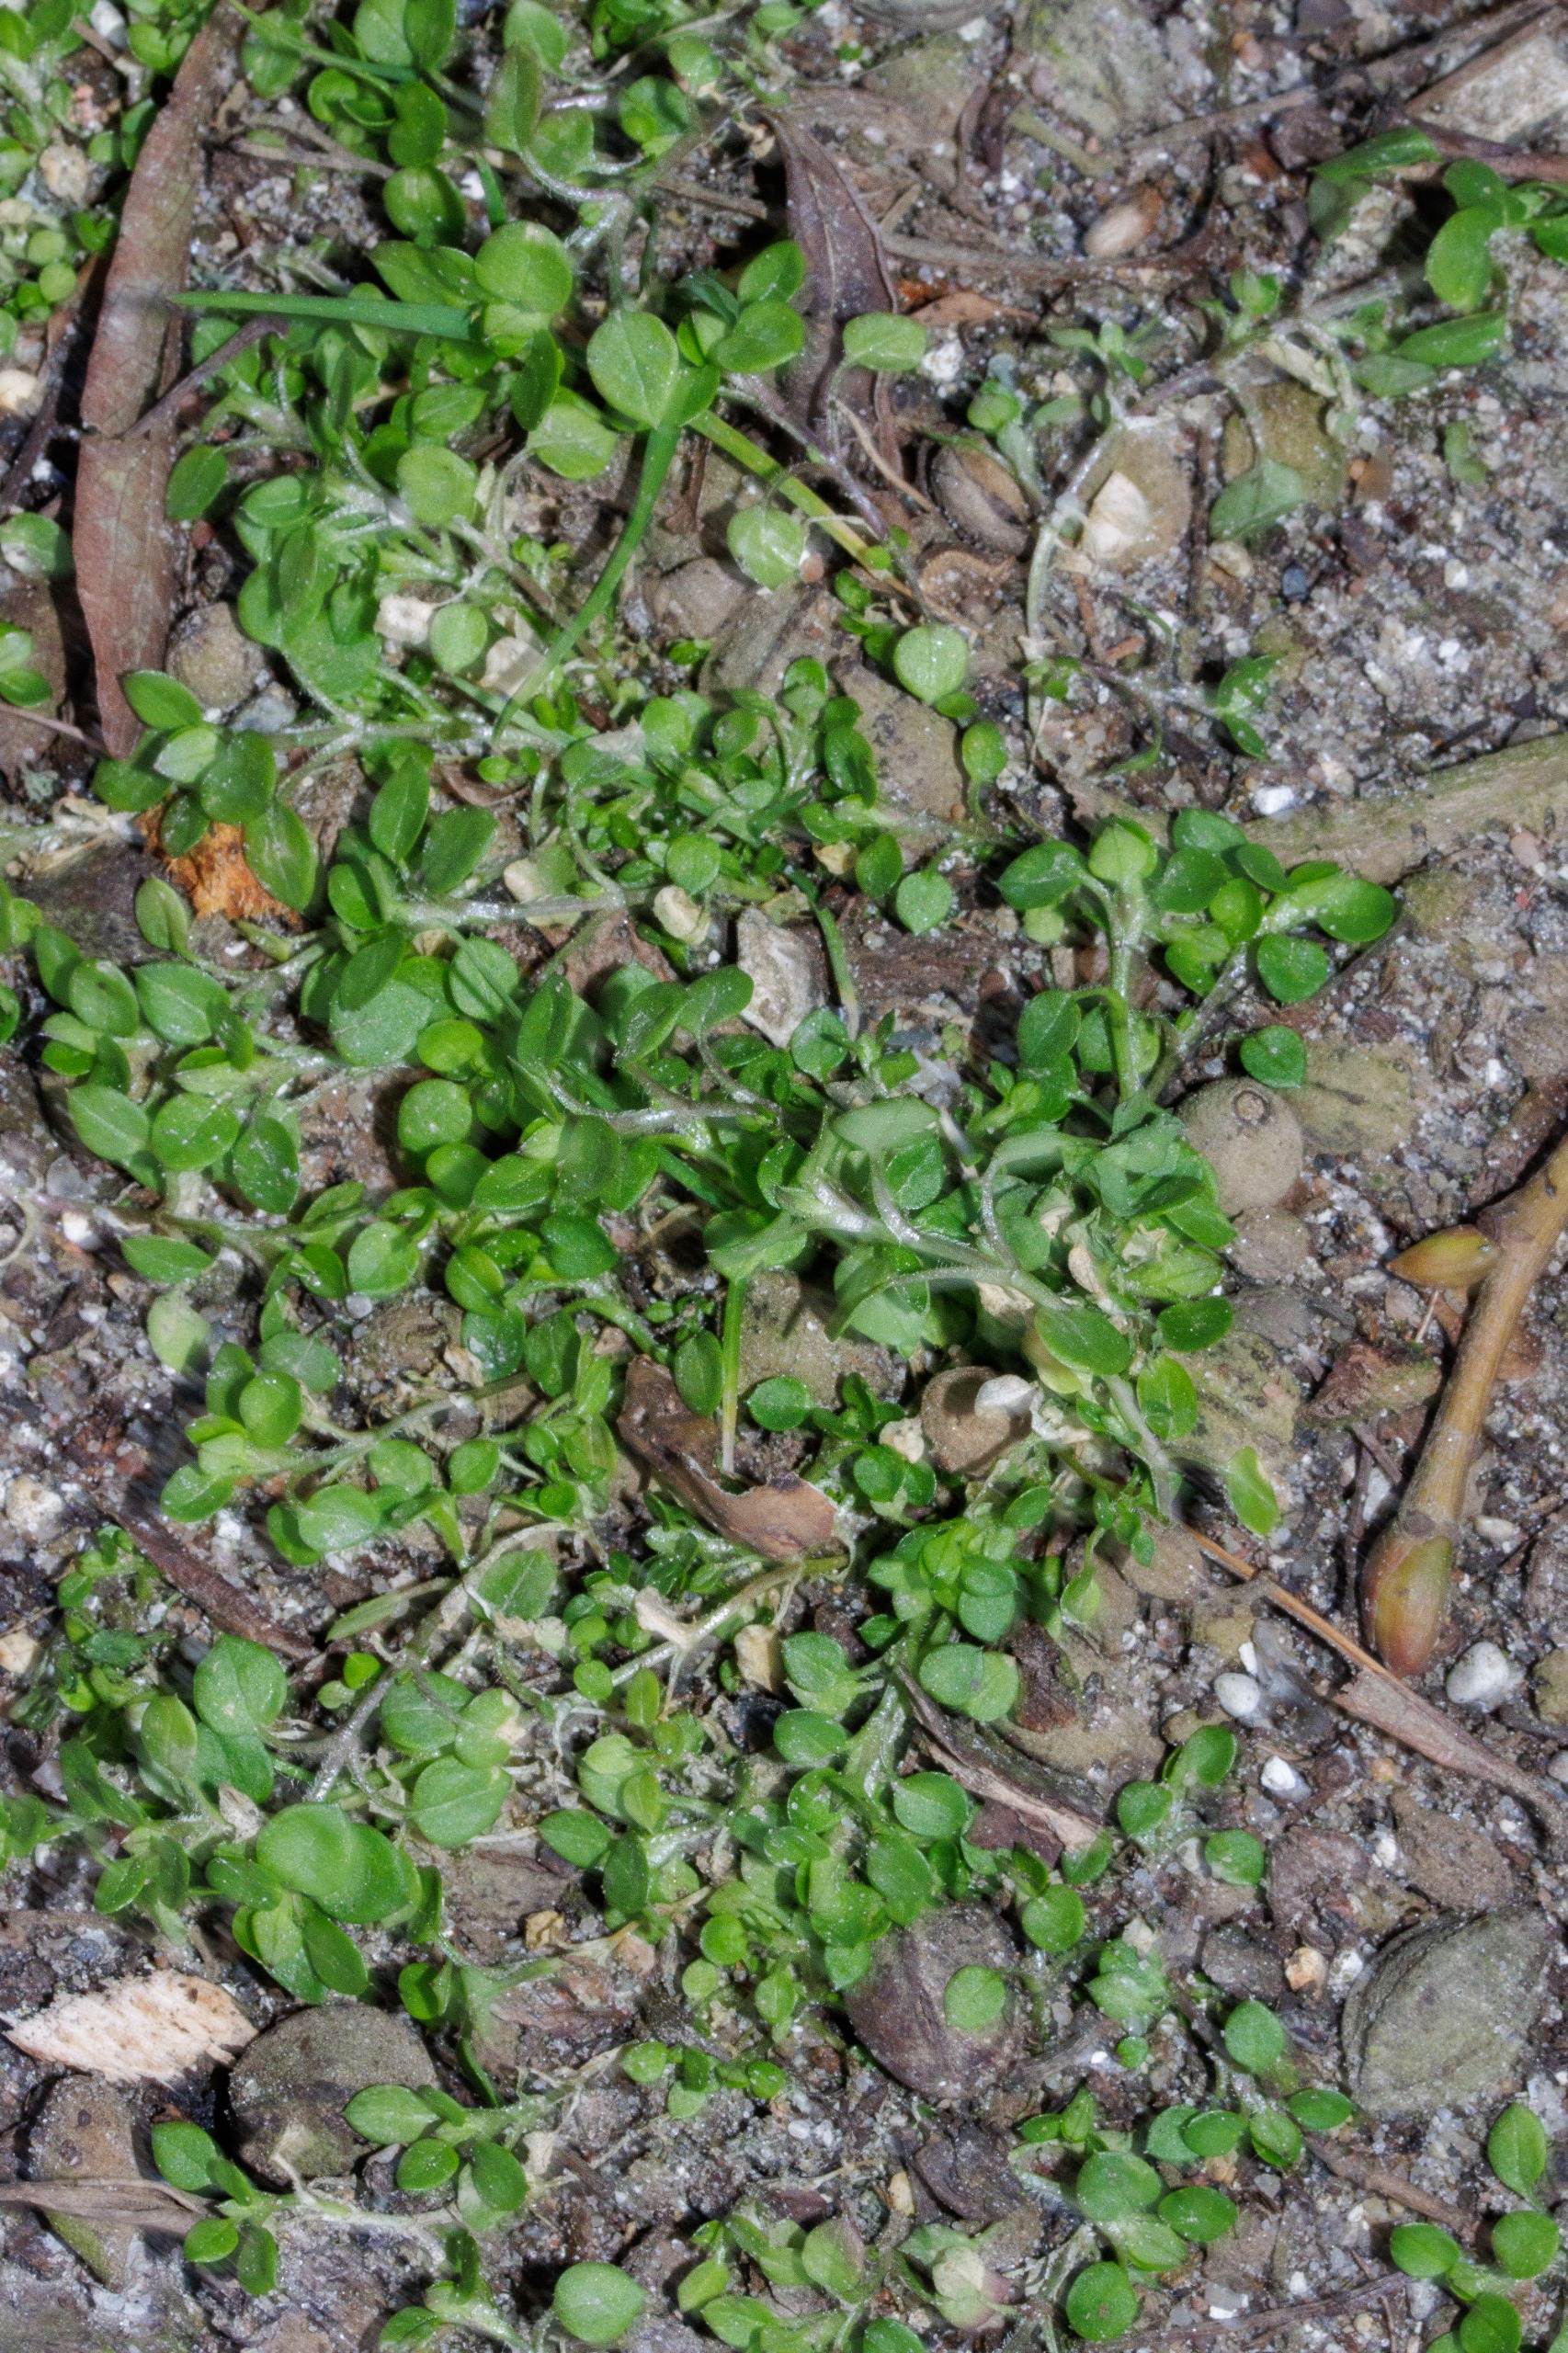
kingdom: Plantae
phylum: Tracheophyta
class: Magnoliopsida
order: Caryophyllales
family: Caryophyllaceae
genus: Stellaria
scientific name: Stellaria media
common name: Almindelig fuglegræs
